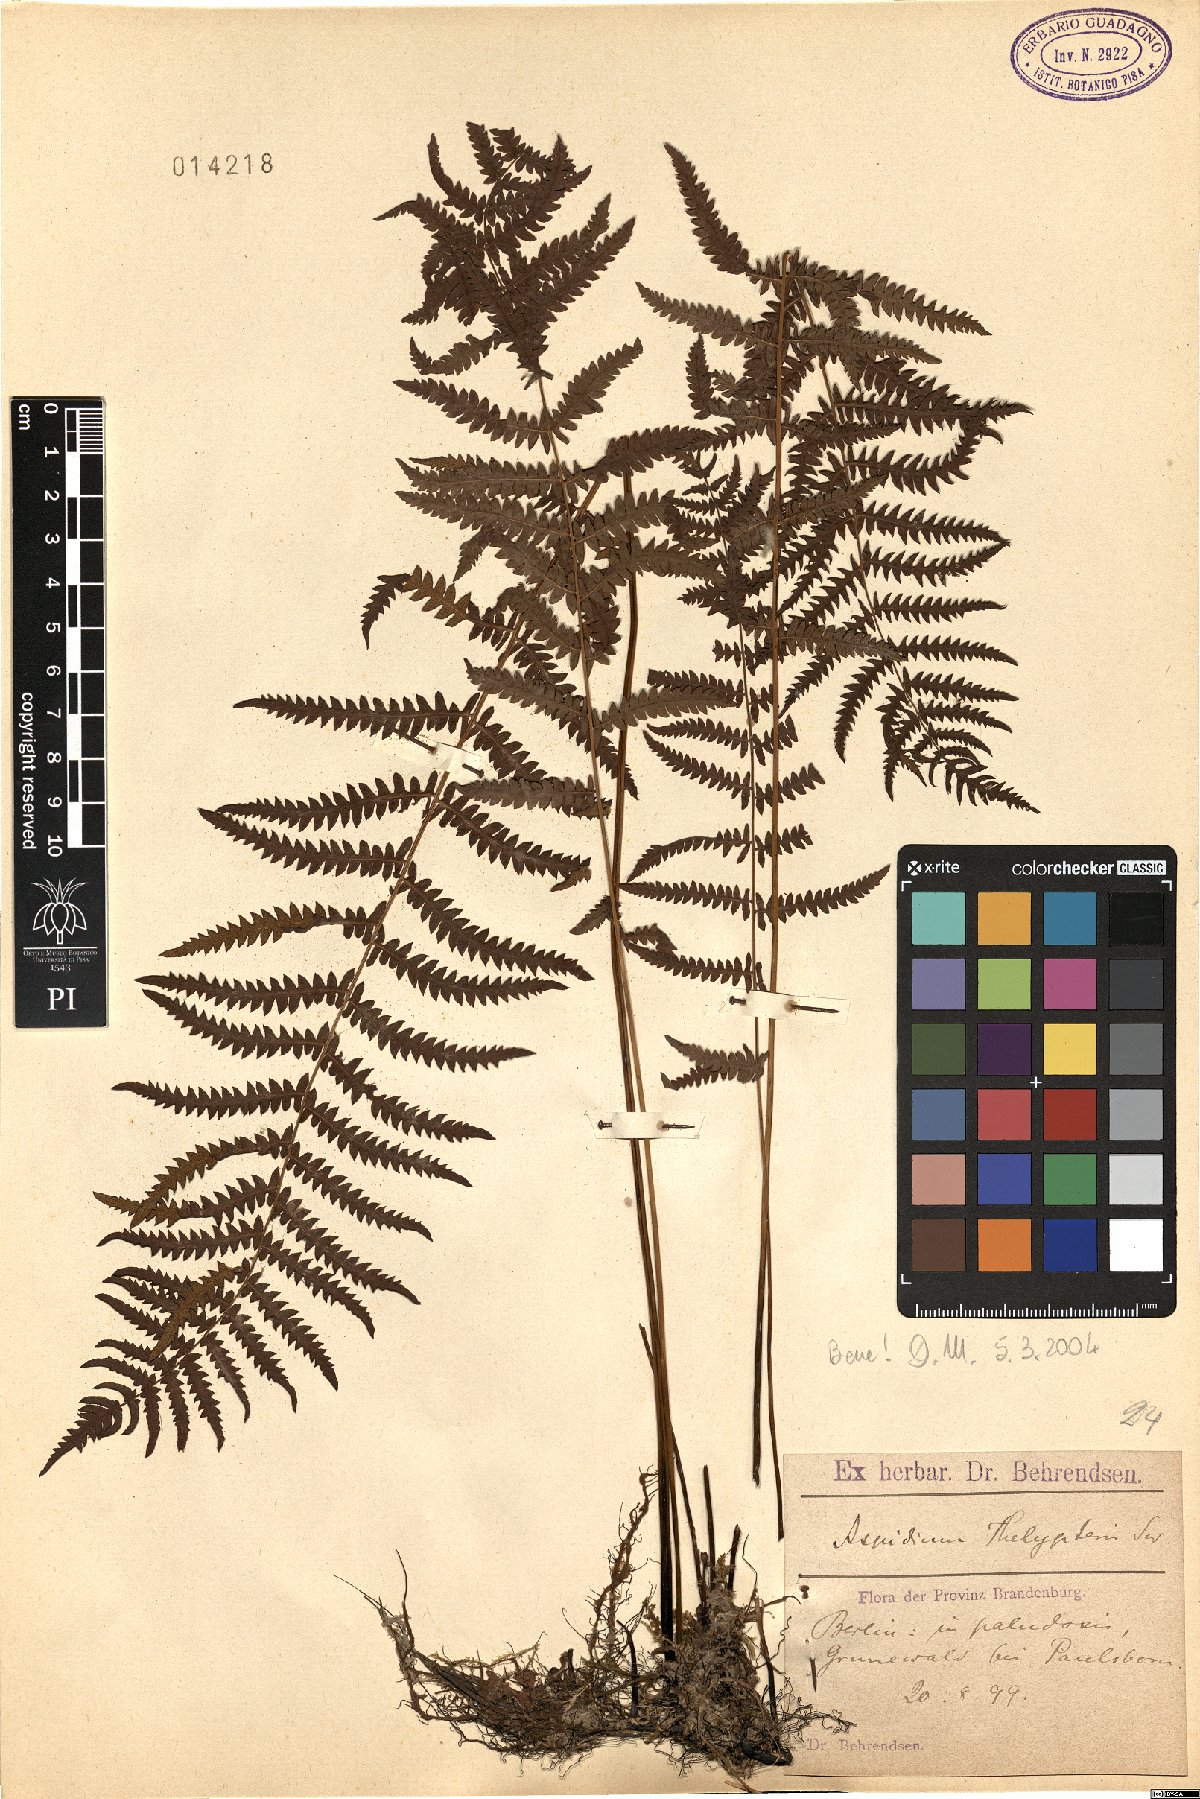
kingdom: Plantae
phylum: Tracheophyta
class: Polypodiopsida
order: Polypodiales
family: Thelypteridaceae
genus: Thelypteris
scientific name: Thelypteris palustris
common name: Marsh fern
